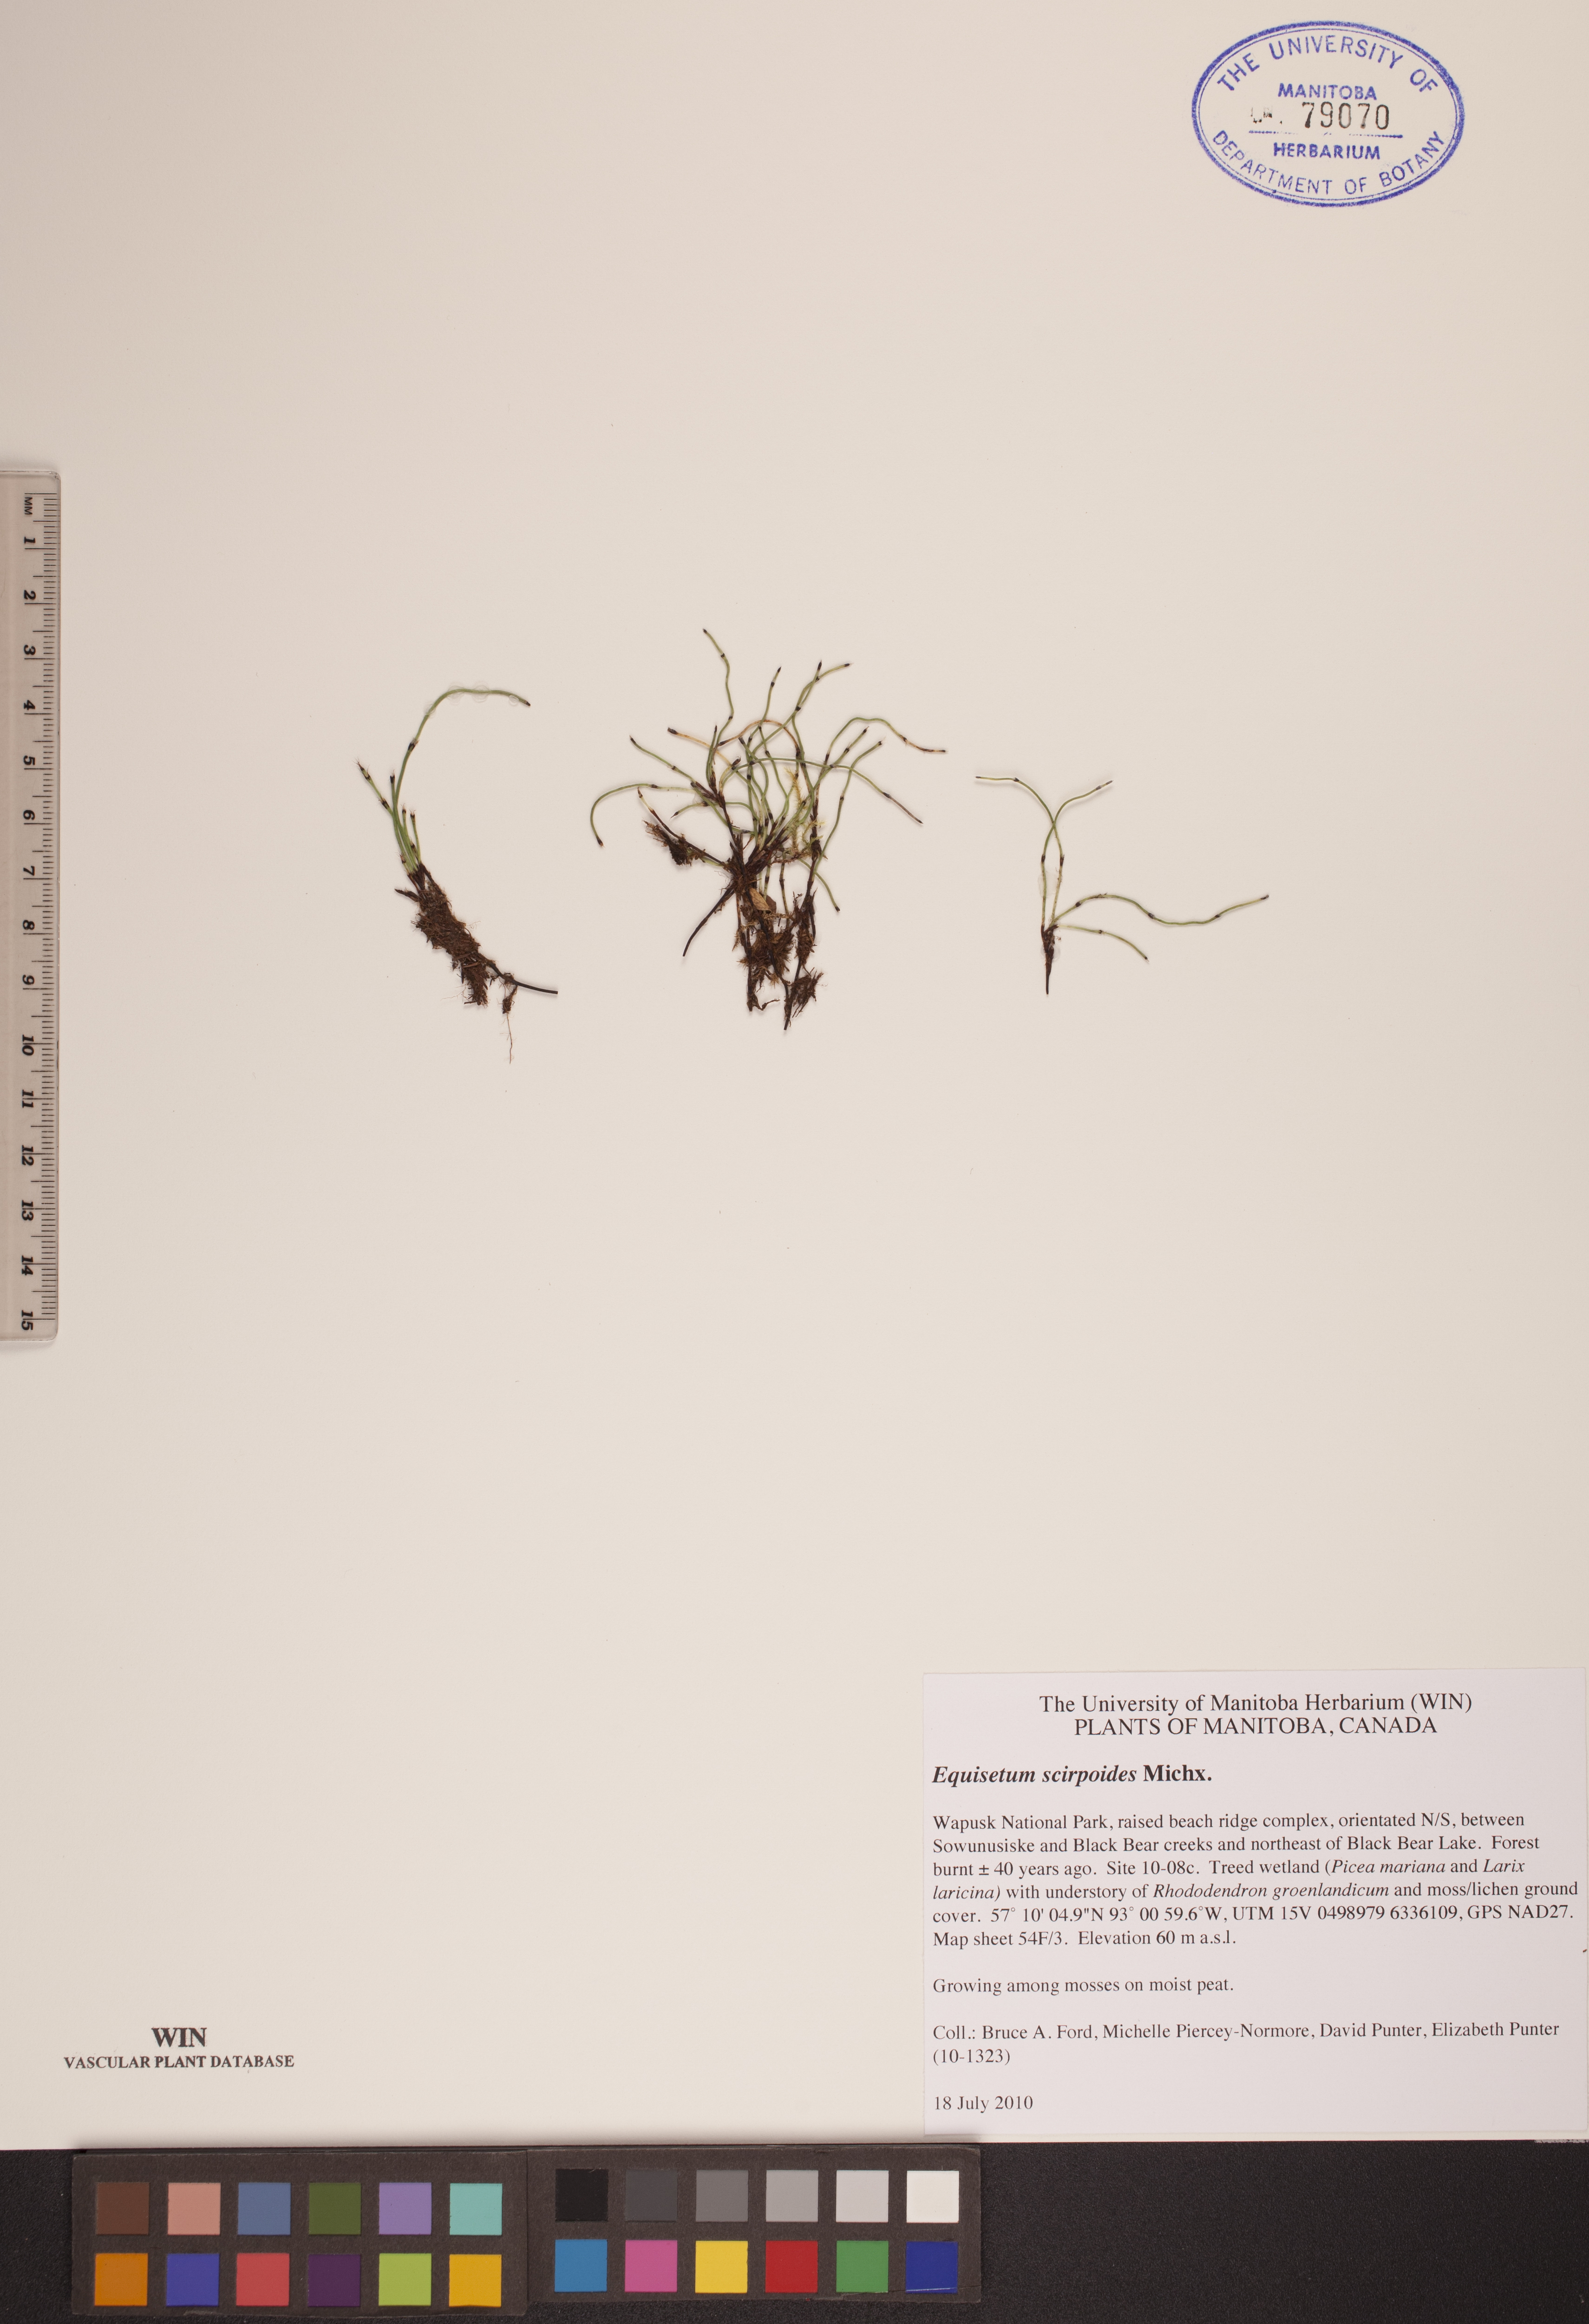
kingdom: Plantae
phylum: Tracheophyta
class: Polypodiopsida
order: Equisetales
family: Equisetaceae
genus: Equisetum
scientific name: Equisetum scirpoides
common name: Delicate horsetail
